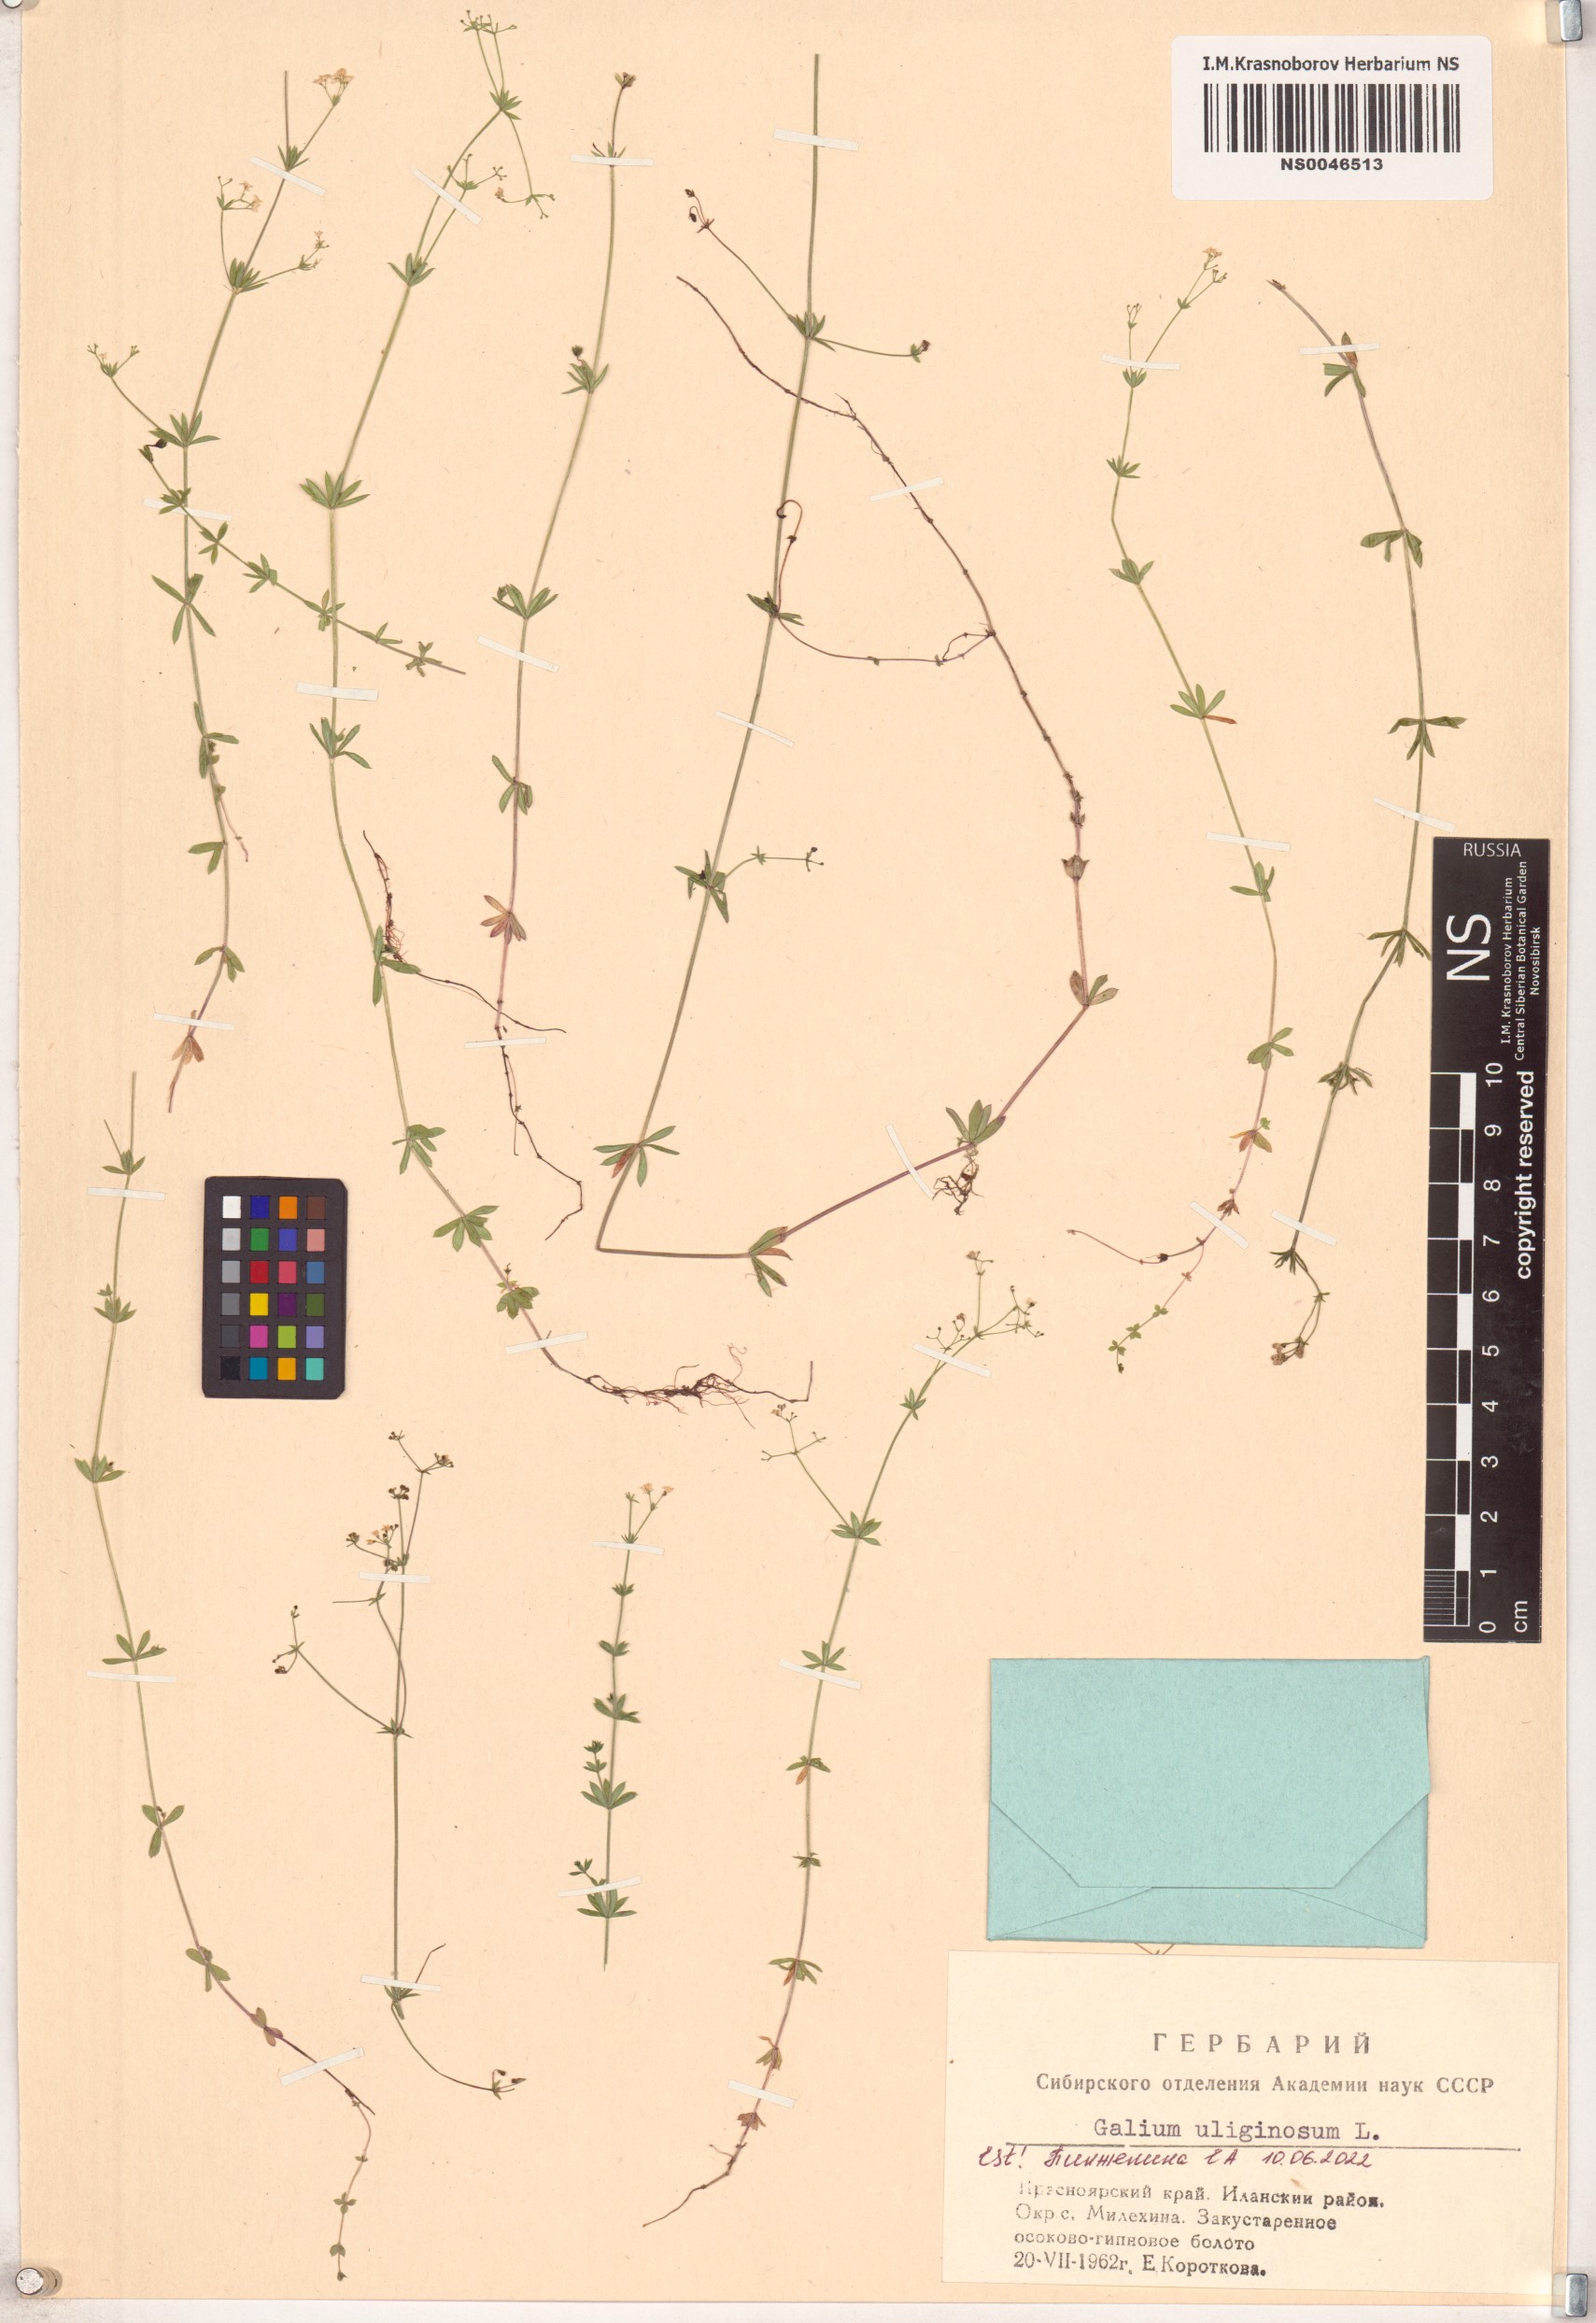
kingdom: Plantae
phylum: Tracheophyta
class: Magnoliopsida
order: Gentianales
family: Rubiaceae
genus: Galium
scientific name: Galium uliginosum
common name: Fen bedstraw
